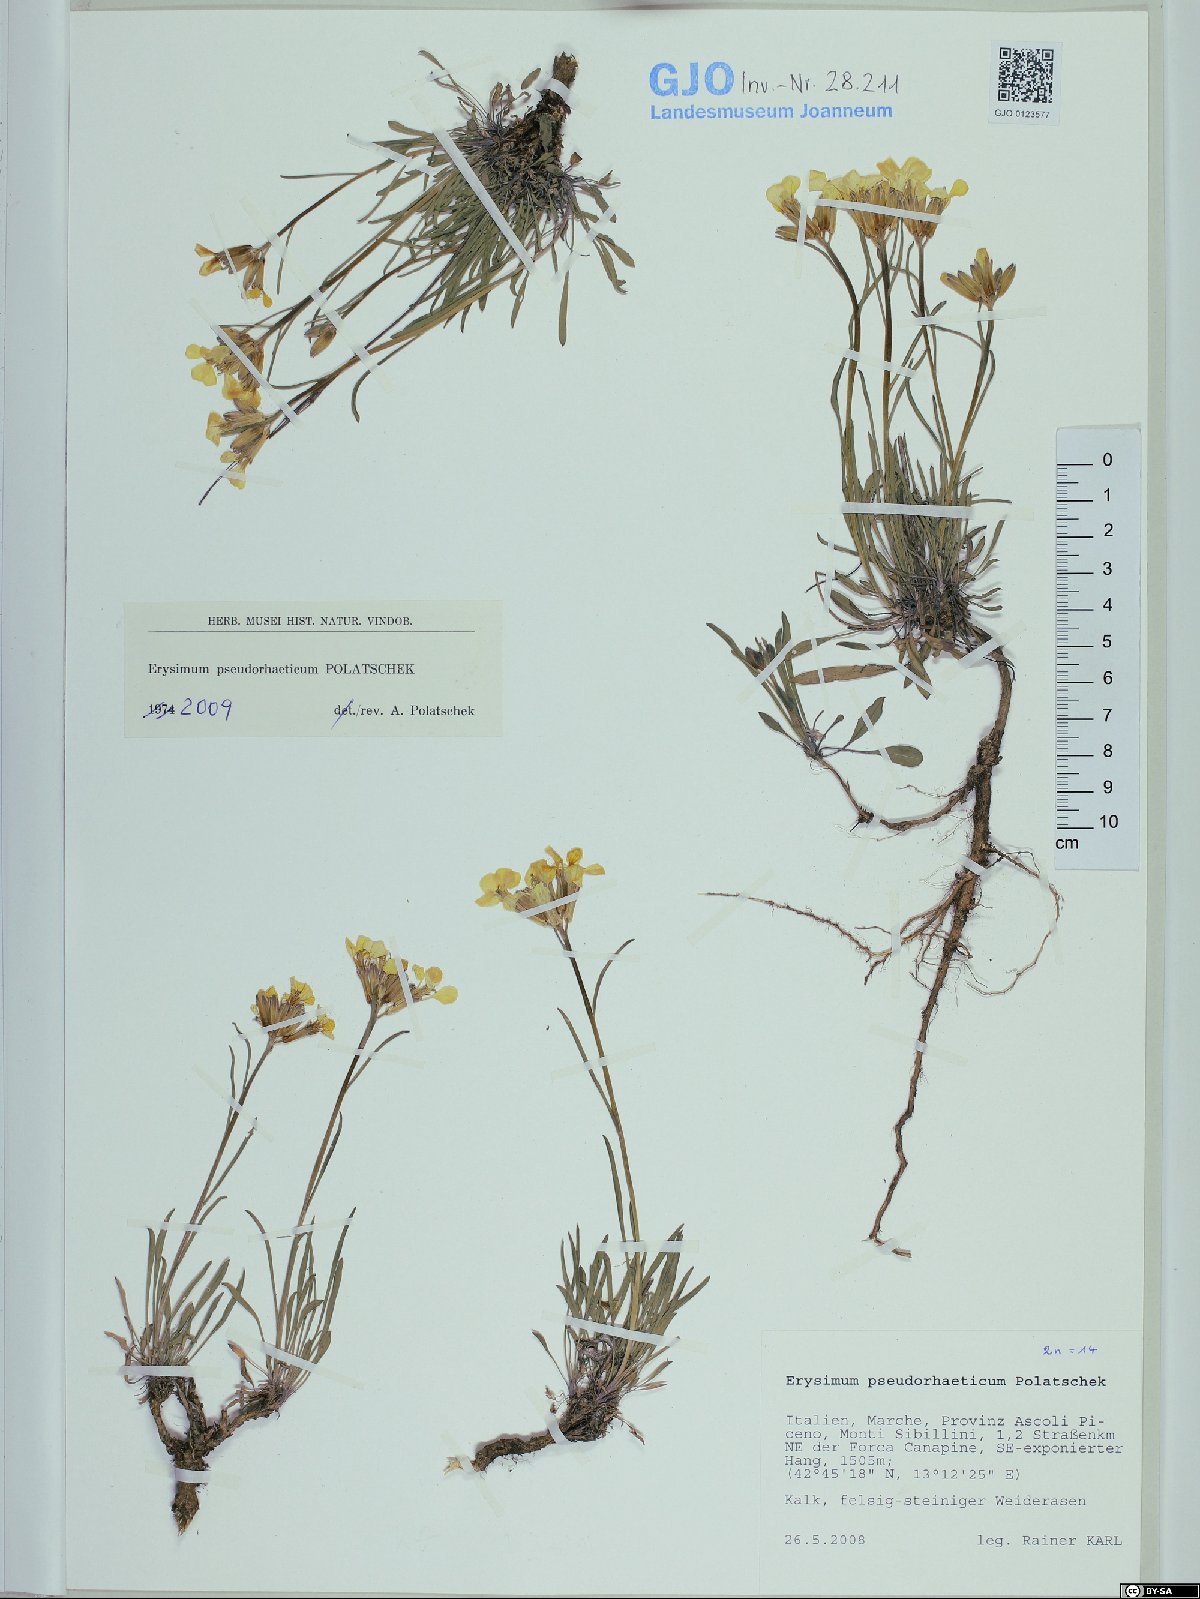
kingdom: Plantae
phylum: Tracheophyta
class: Magnoliopsida
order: Brassicales
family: Brassicaceae
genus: Erysimum
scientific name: Erysimum pseudorhaeticum
